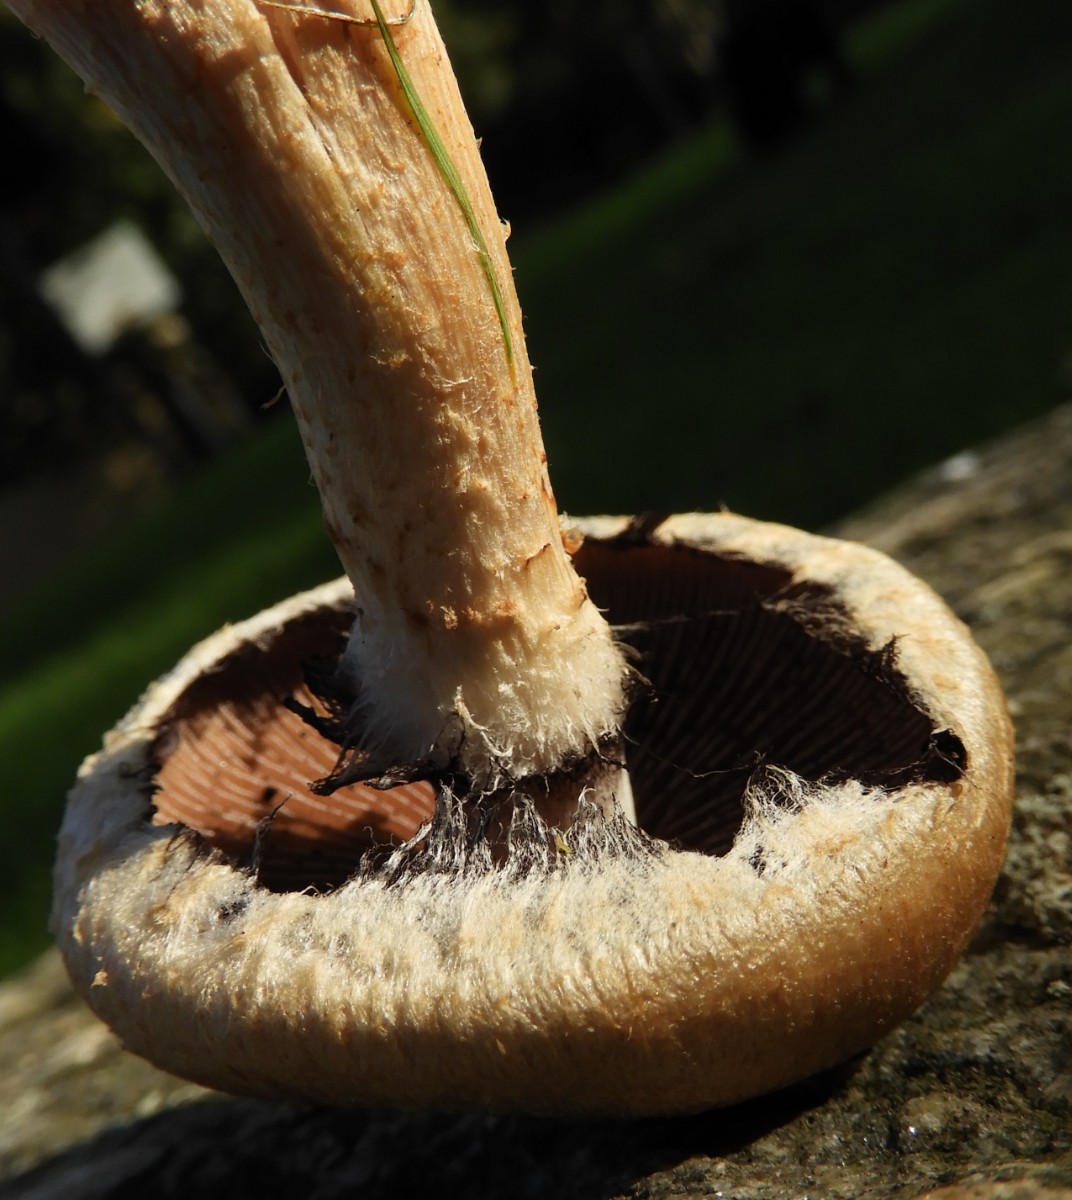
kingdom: Fungi
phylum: Basidiomycota
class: Agaricomycetes
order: Agaricales
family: Psathyrellaceae
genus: Lacrymaria
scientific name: Lacrymaria lacrymabunda
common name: grædende mørkhat
